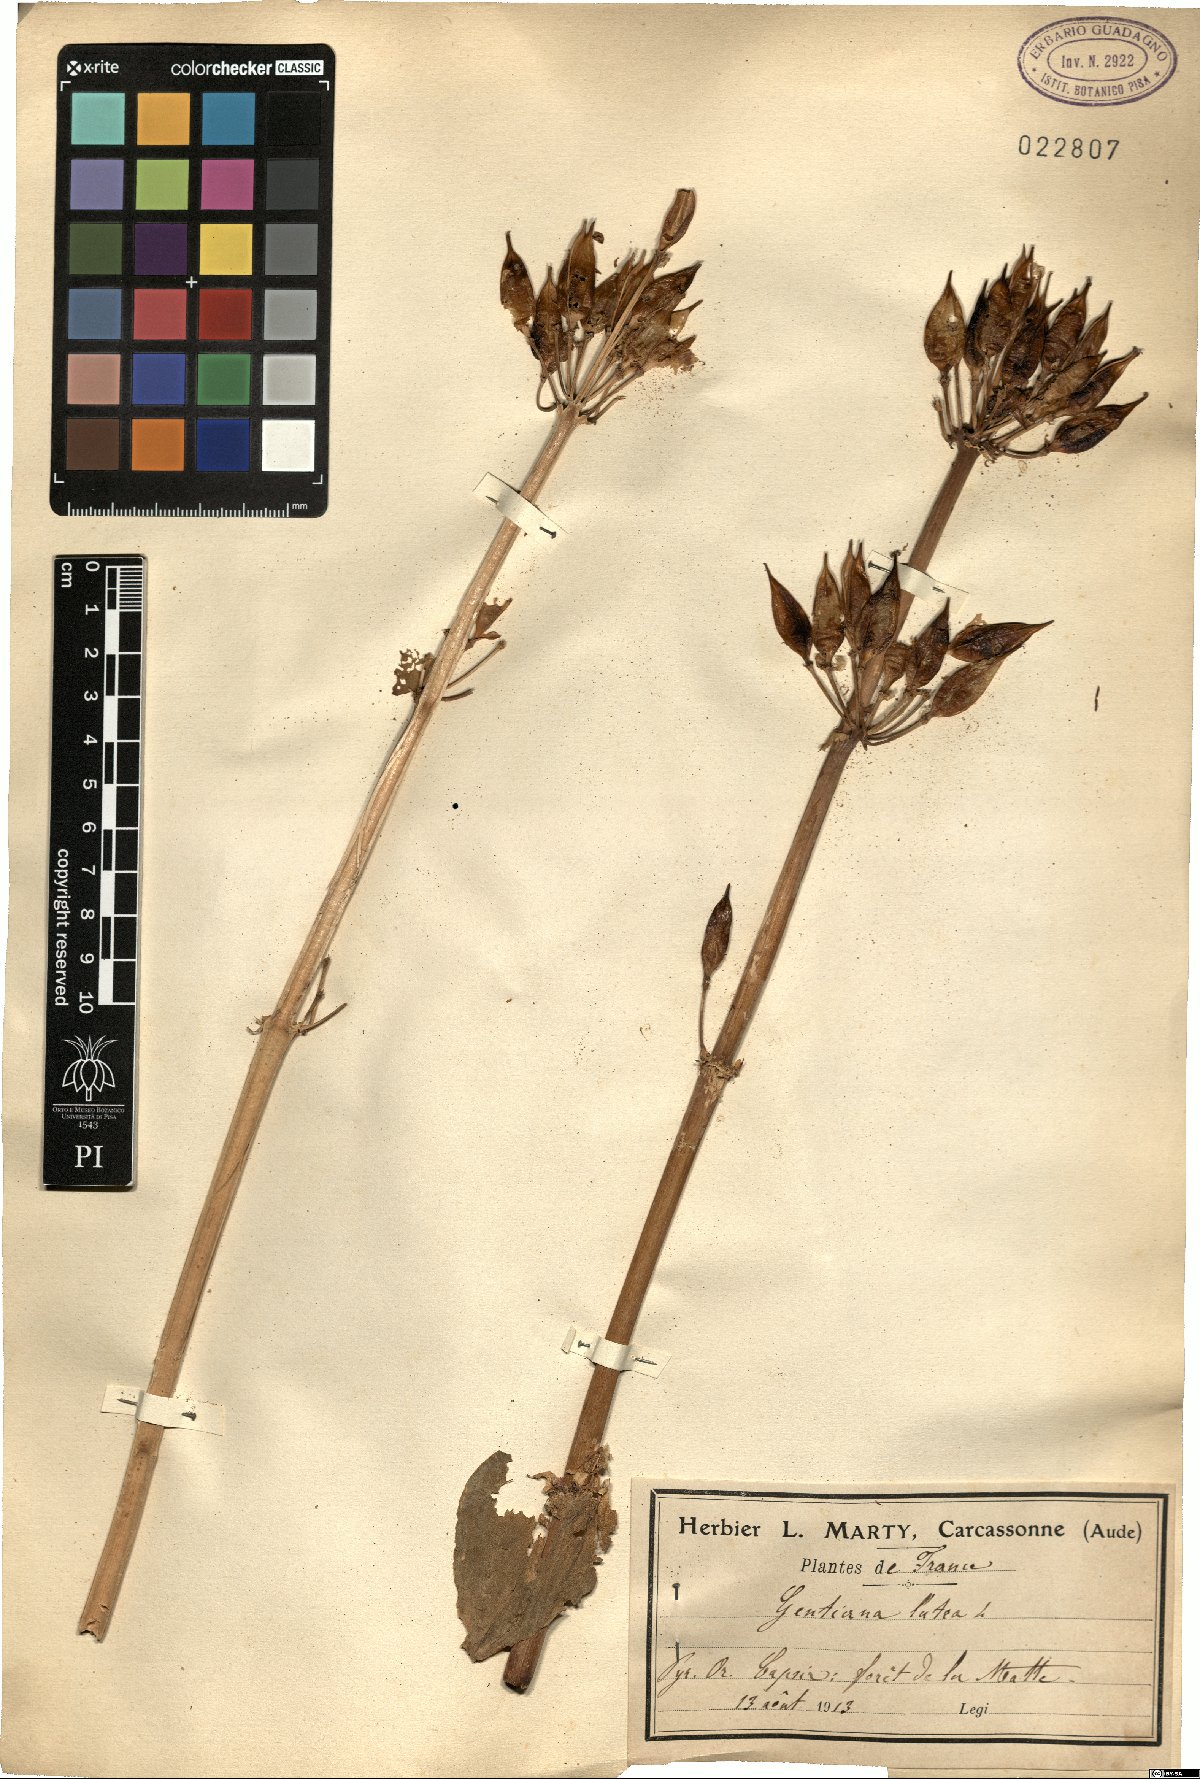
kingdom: Plantae
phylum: Tracheophyta
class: Magnoliopsida
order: Gentianales
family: Gentianaceae
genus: Gentiana
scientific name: Gentiana lutea
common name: Great yellow gentian
